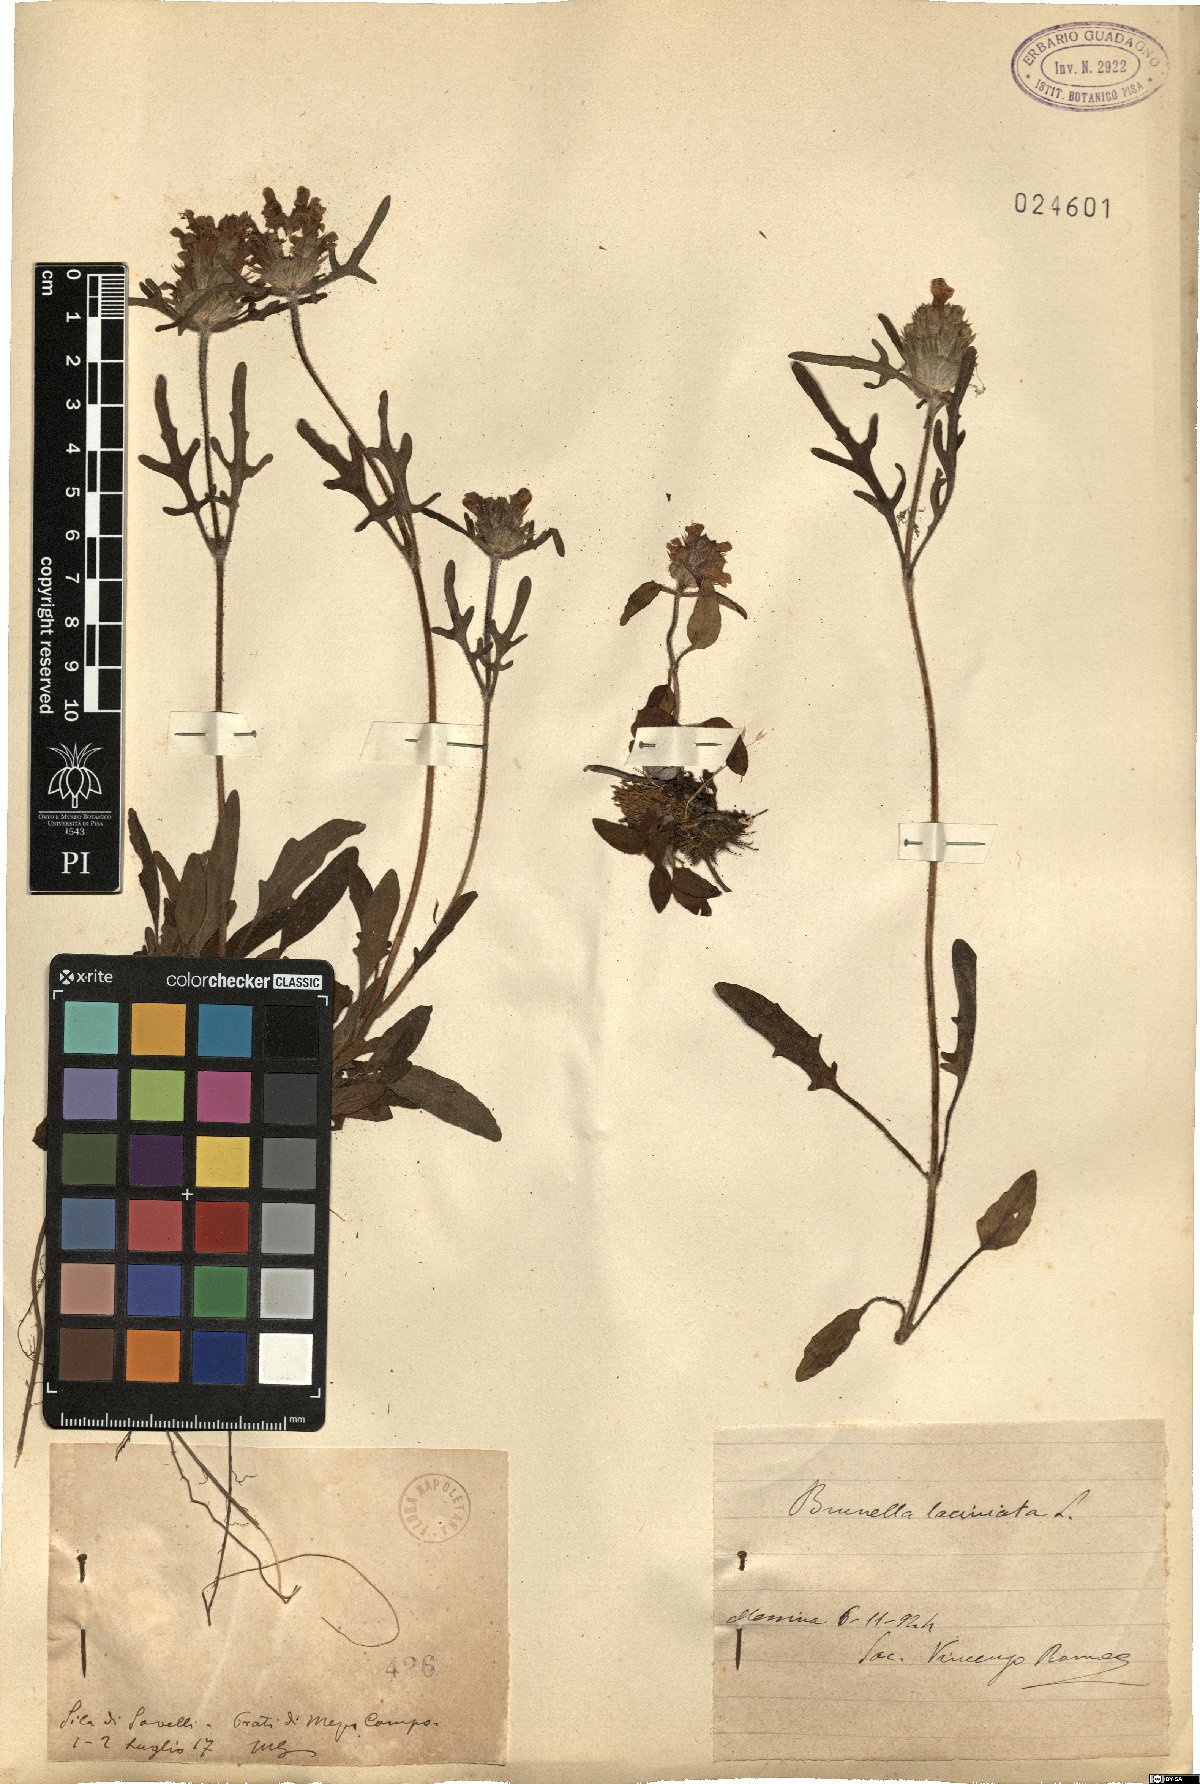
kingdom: Plantae
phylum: Tracheophyta
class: Magnoliopsida
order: Lamiales
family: Lamiaceae
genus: Prunella
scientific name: Prunella laciniata
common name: Cut-leaved selfheal
